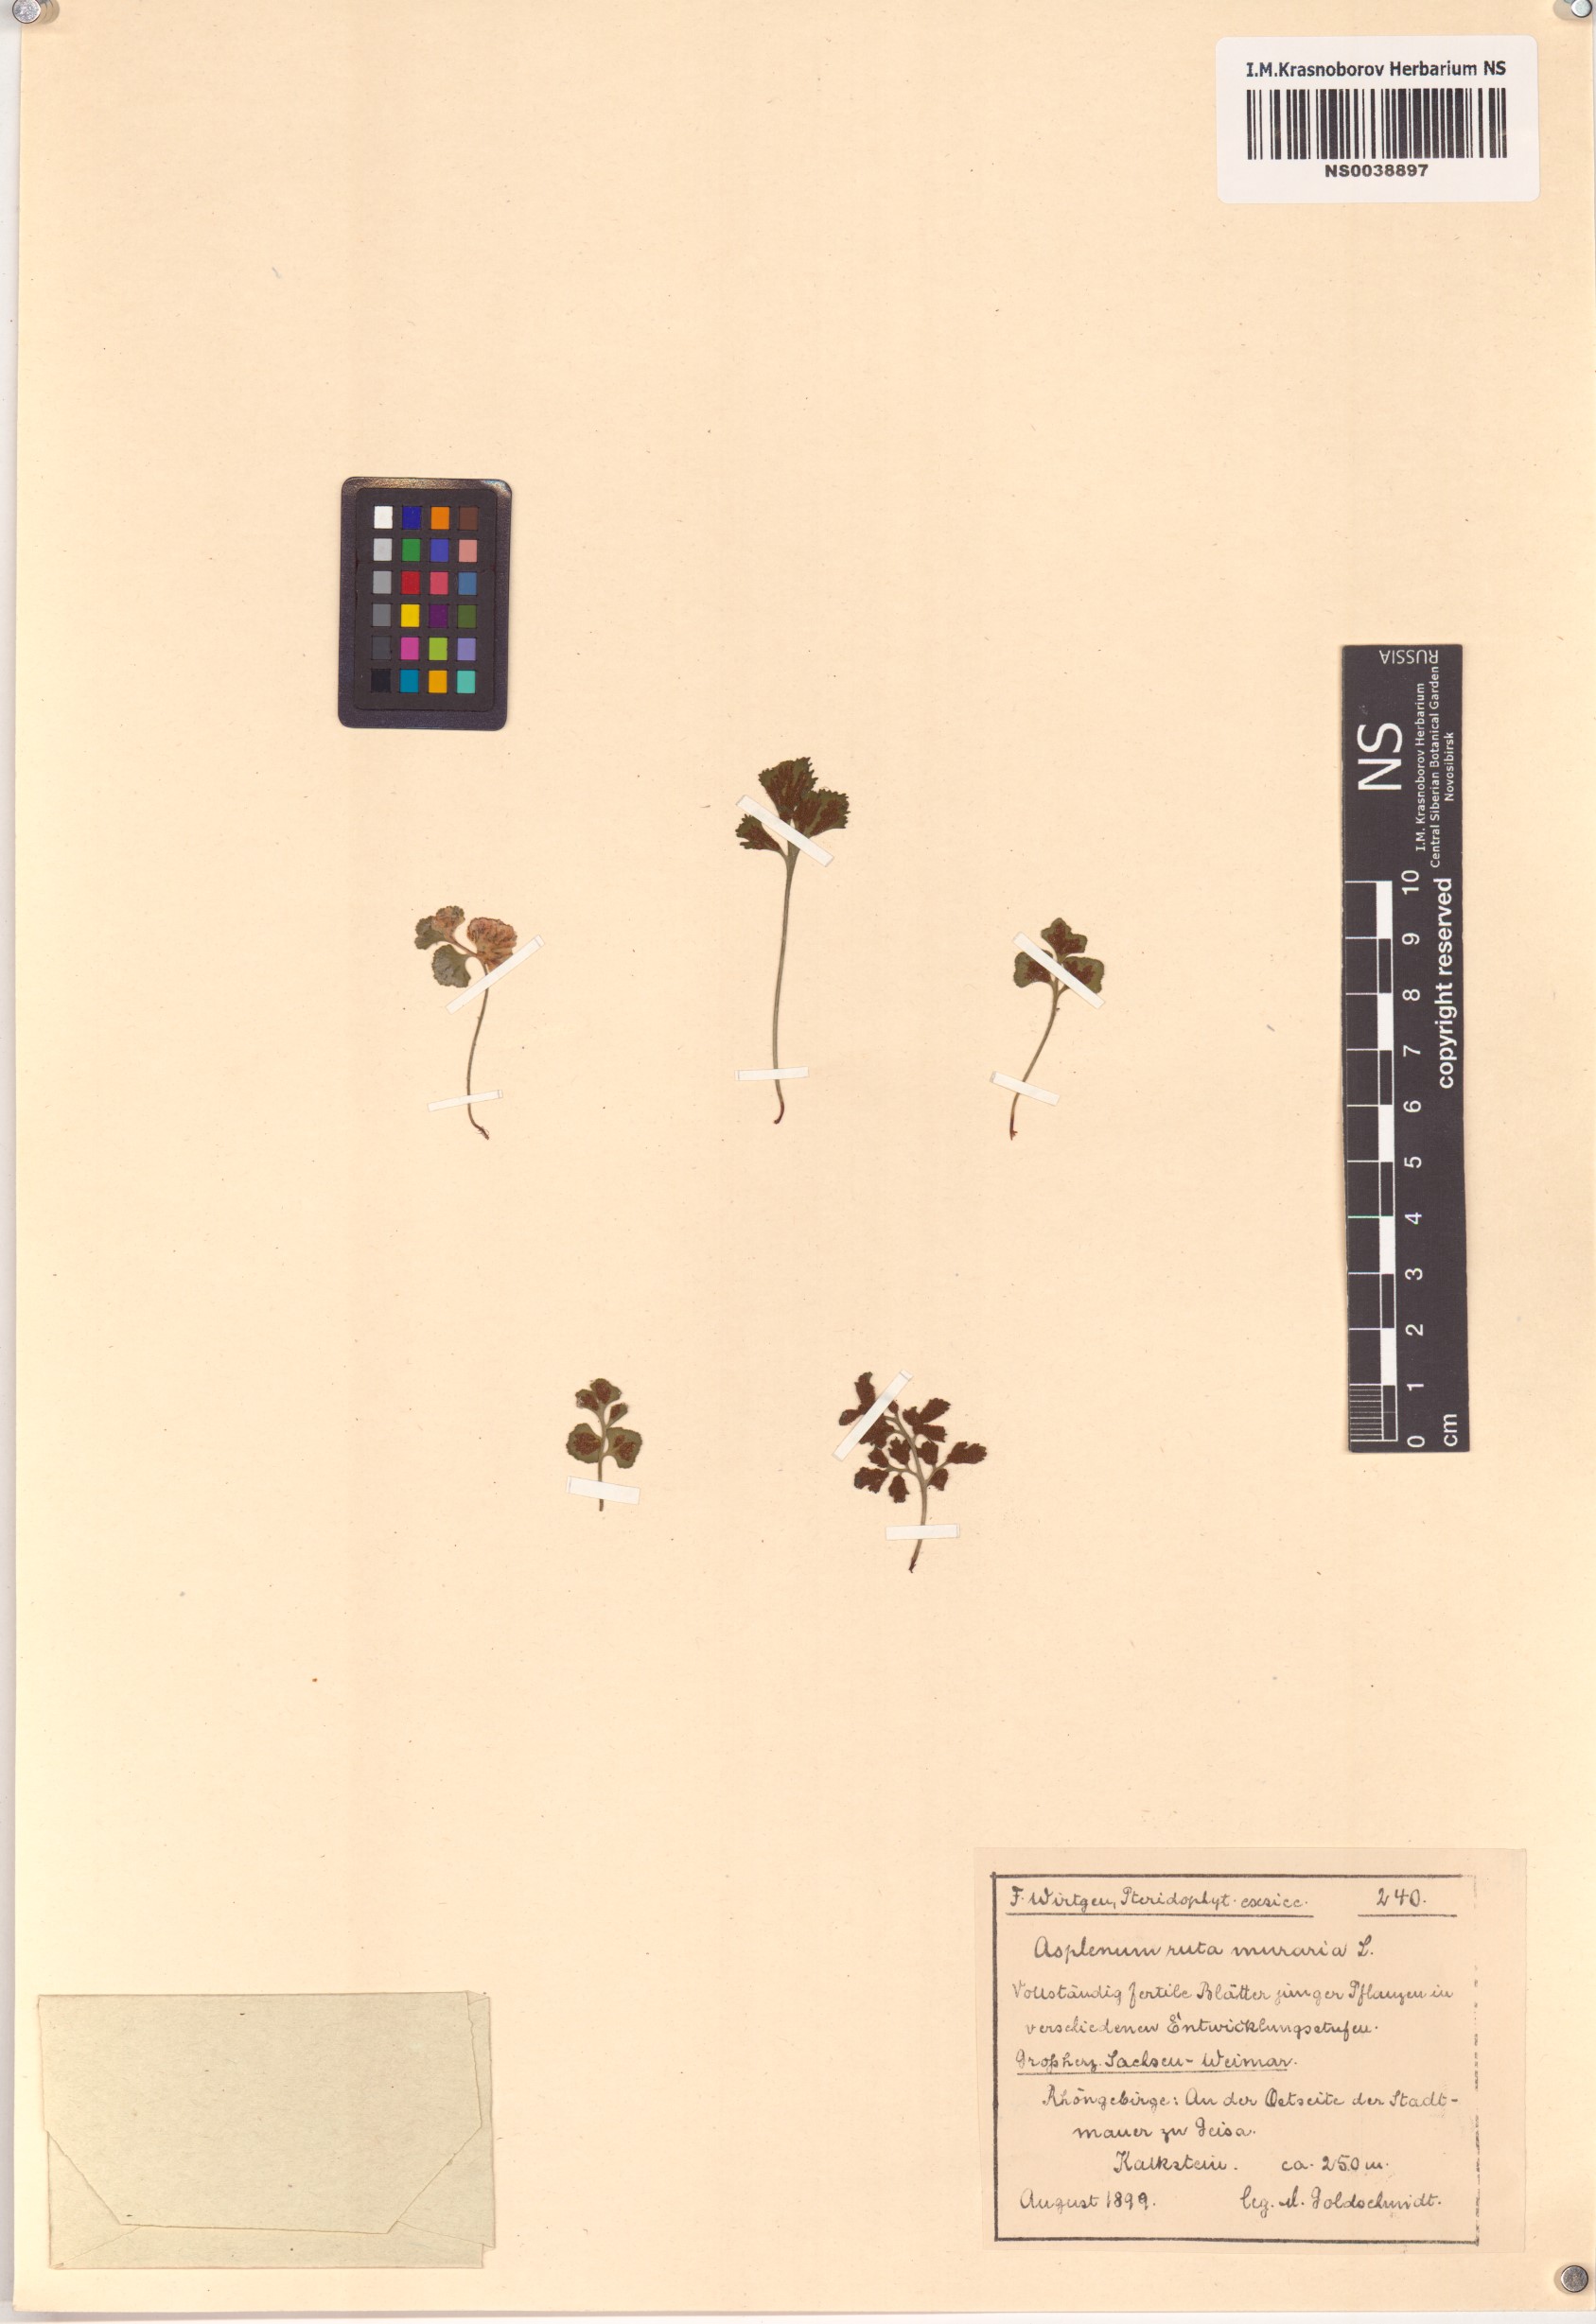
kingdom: Plantae
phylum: Tracheophyta
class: Polypodiopsida
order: Polypodiales
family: Aspleniaceae
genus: Asplenium
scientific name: Asplenium ruta-muraria
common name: Wall-rue
